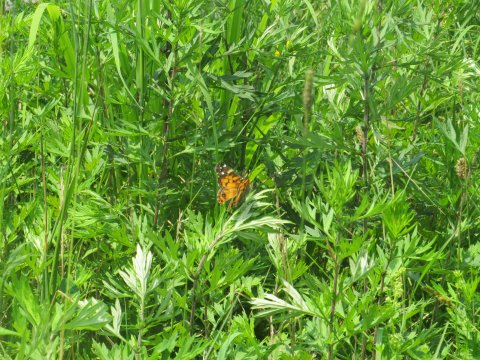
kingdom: Animalia
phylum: Arthropoda
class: Insecta
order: Lepidoptera
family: Nymphalidae
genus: Vanessa
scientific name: Vanessa virginiensis
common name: American Lady
